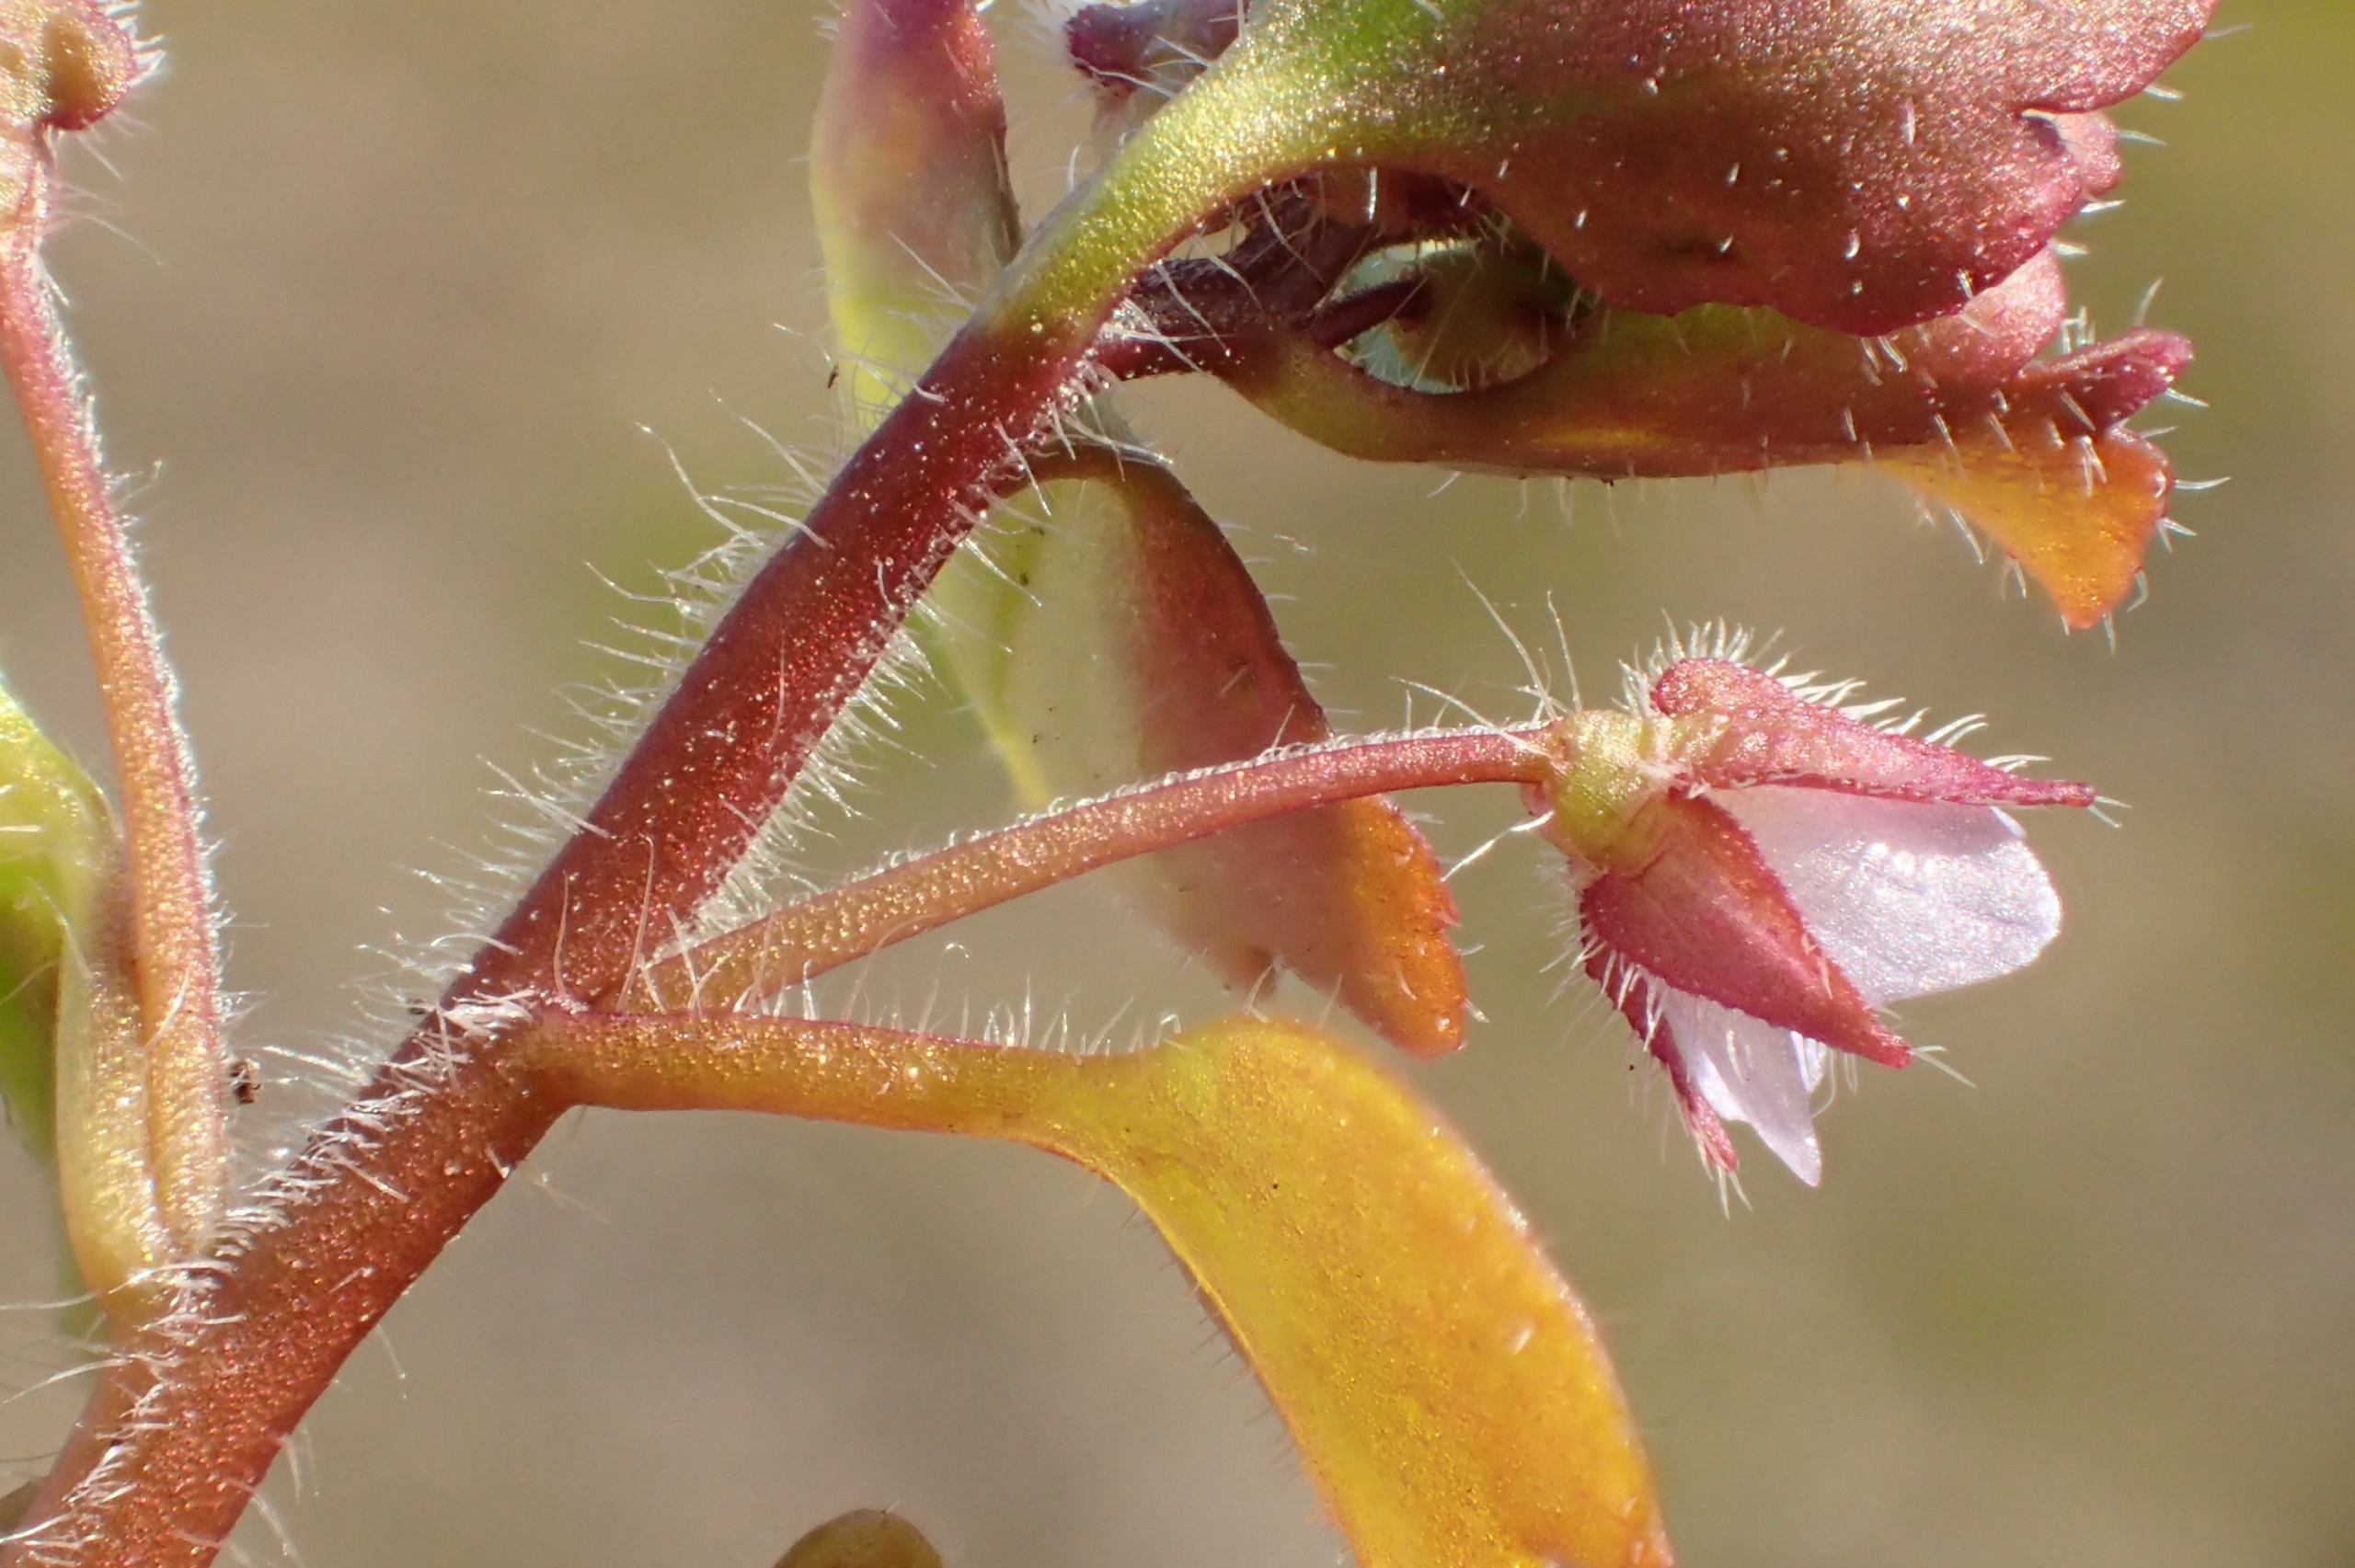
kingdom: Plantae
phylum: Tracheophyta
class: Magnoliopsida
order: Lamiales
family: Plantaginaceae
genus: Veronica
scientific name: Veronica sublobata
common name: Krat-ærenpris
